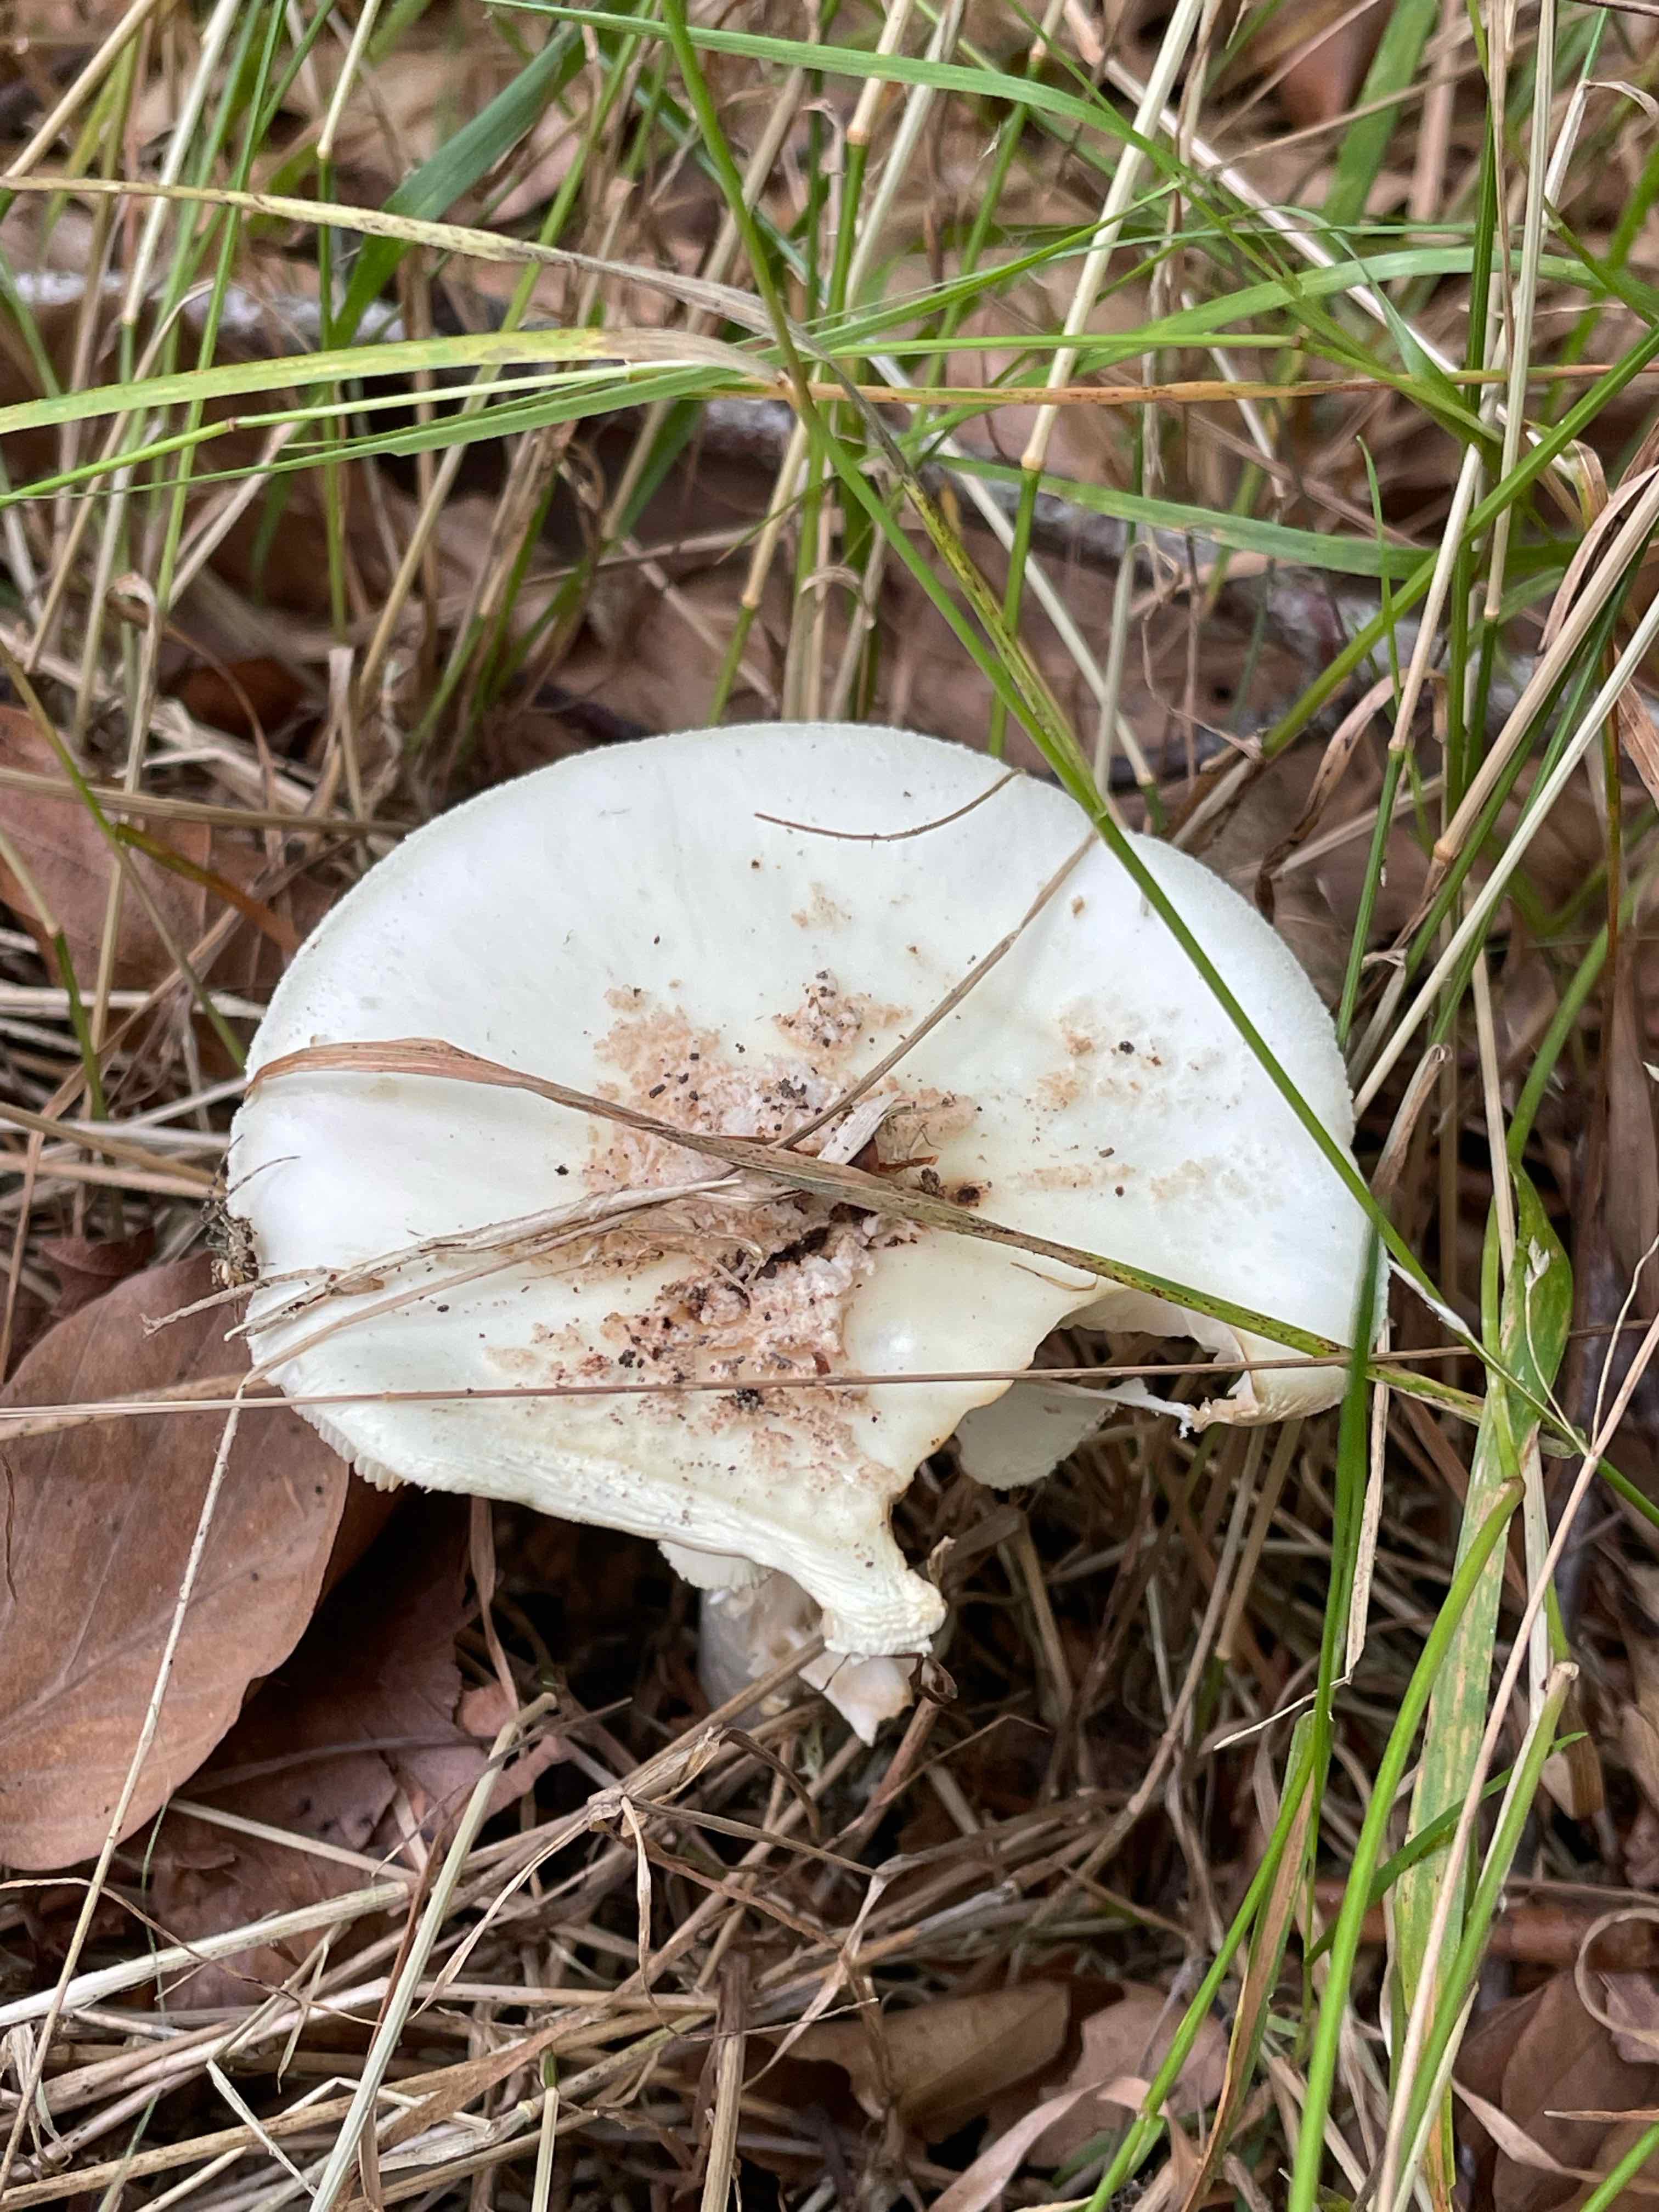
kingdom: Fungi
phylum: Basidiomycota
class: Agaricomycetes
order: Agaricales
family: Amanitaceae
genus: Amanita
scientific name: Amanita citrina
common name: kugleknoldet fluesvamp
